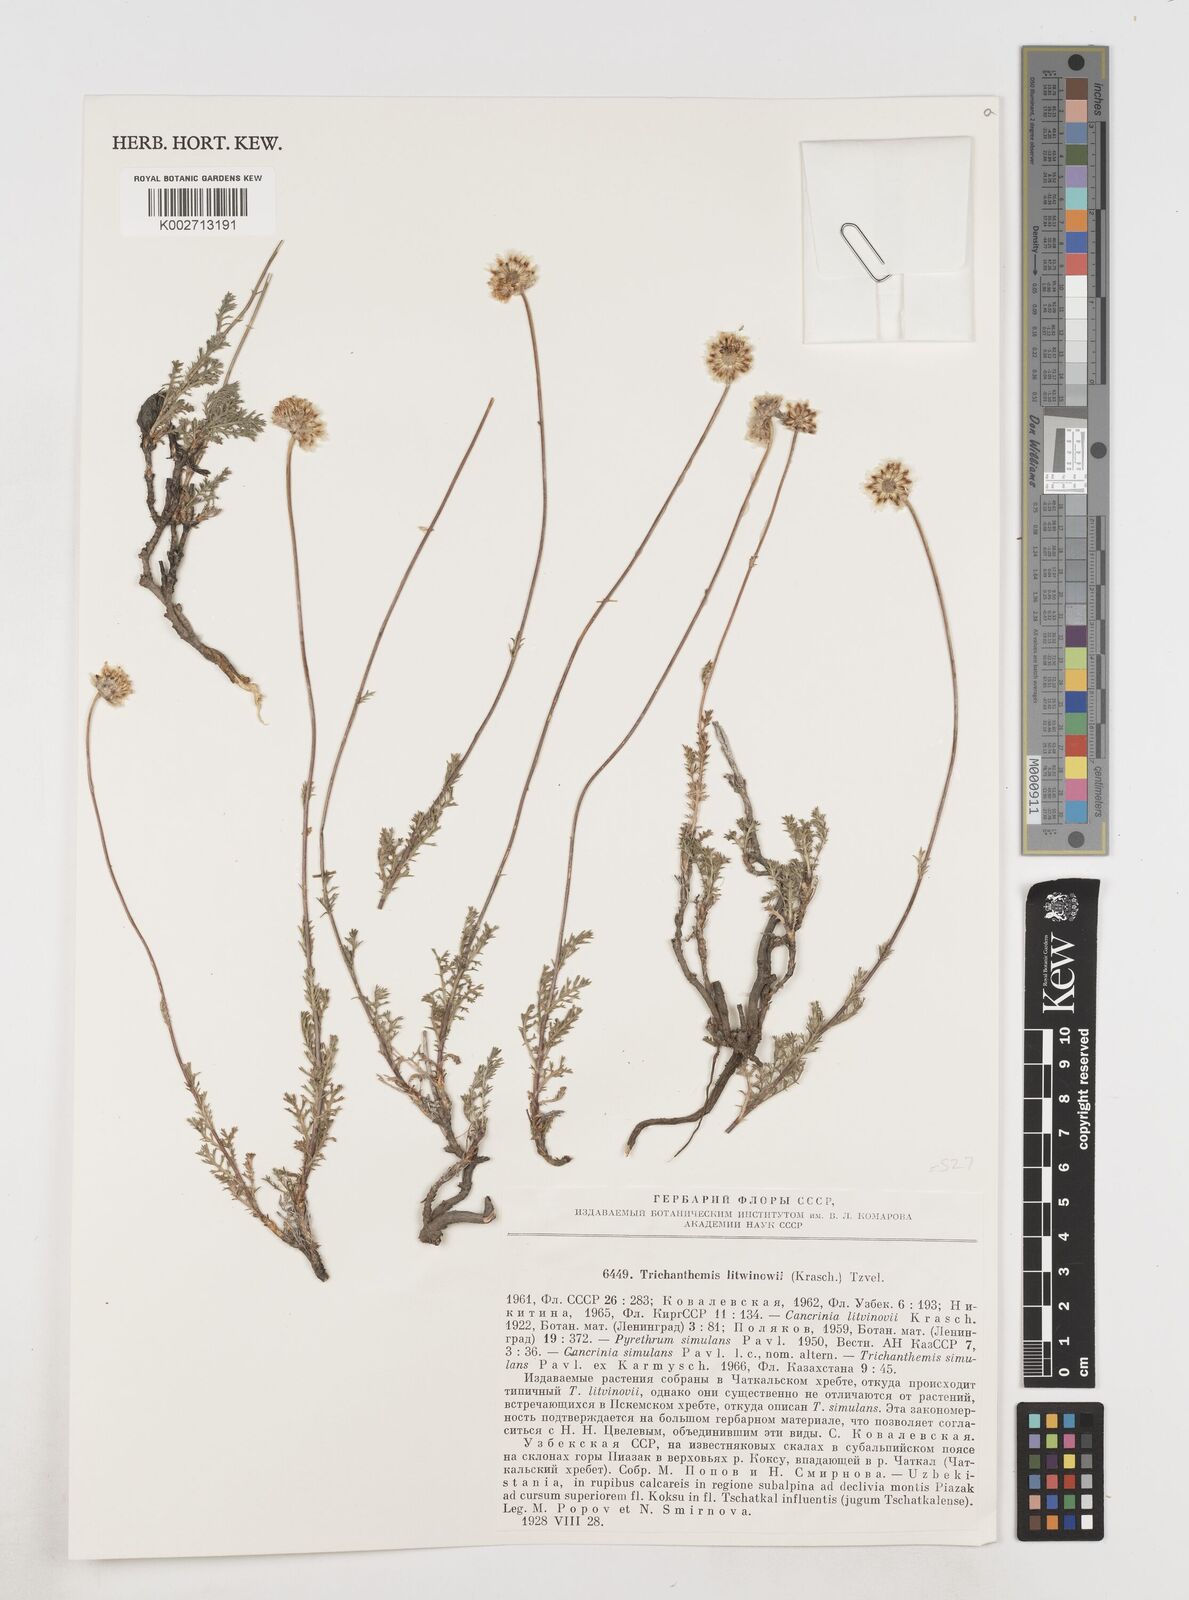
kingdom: Plantae
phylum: Tracheophyta
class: Magnoliopsida
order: Asterales
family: Asteraceae
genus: Trichanthemis
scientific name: Trichanthemis litwinowii
